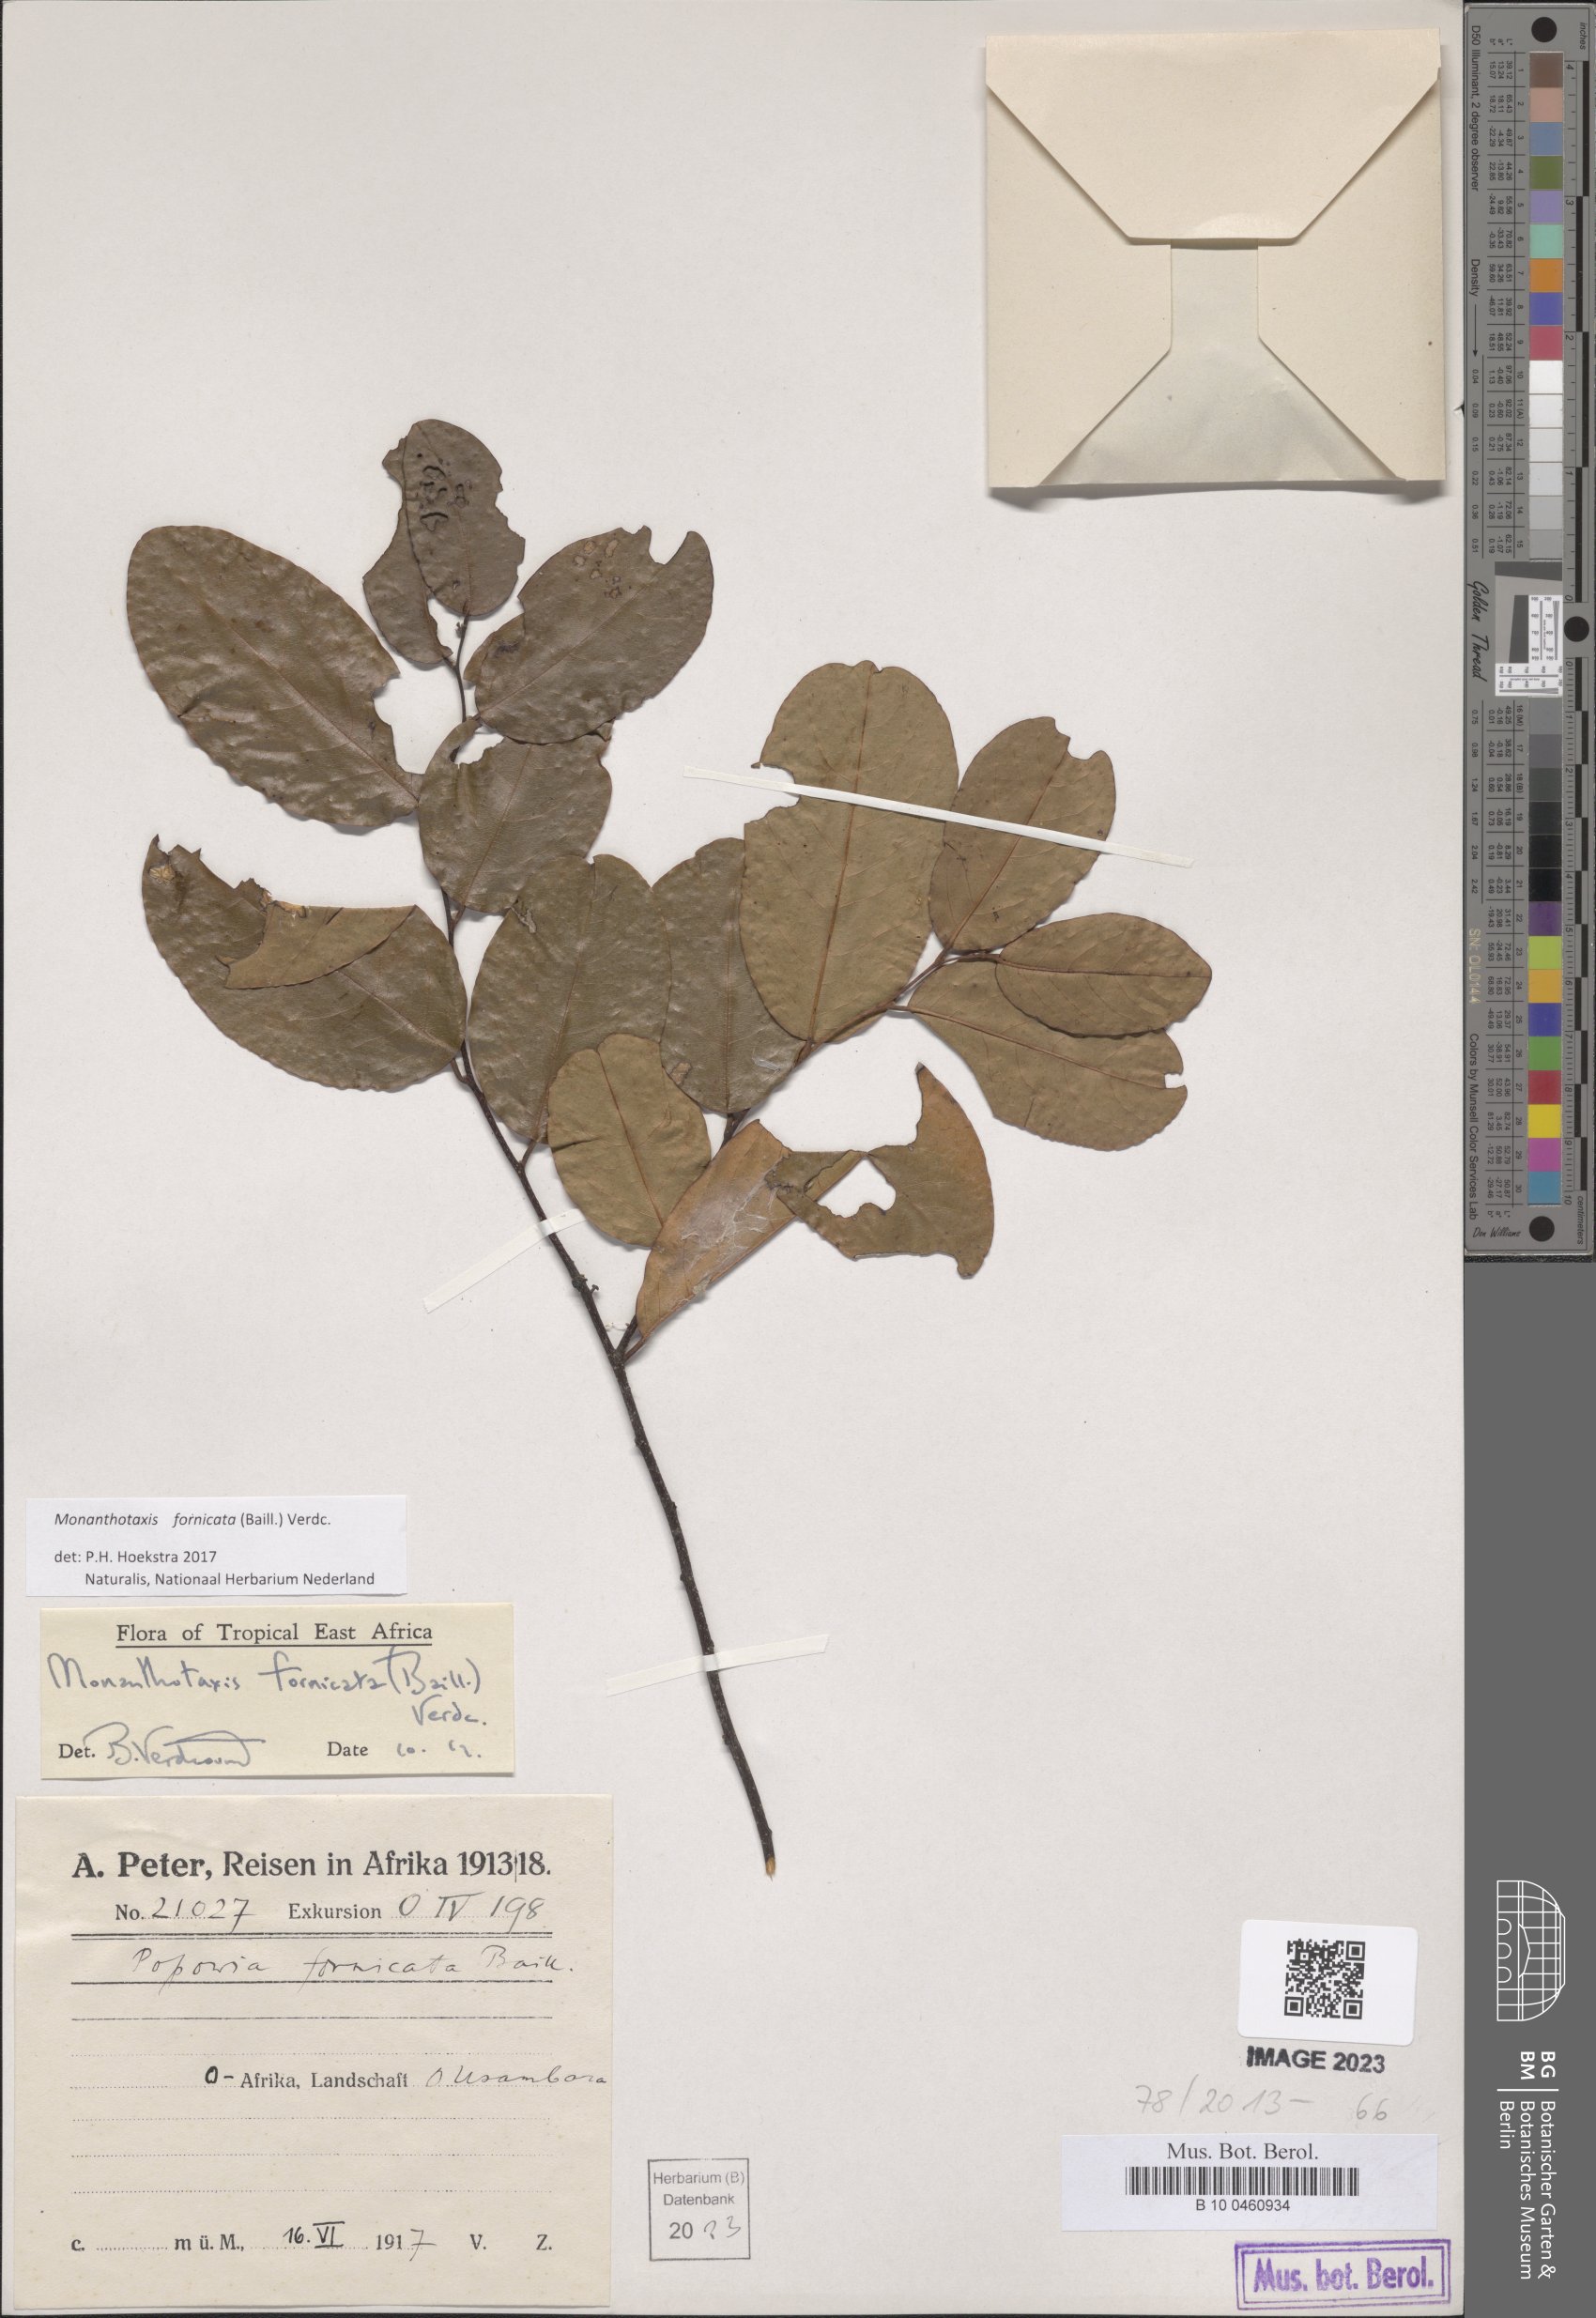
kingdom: Plantae
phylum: Tracheophyta
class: Magnoliopsida
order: Magnoliales
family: Annonaceae
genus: Monanthotaxis
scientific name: Monanthotaxis fornicata
